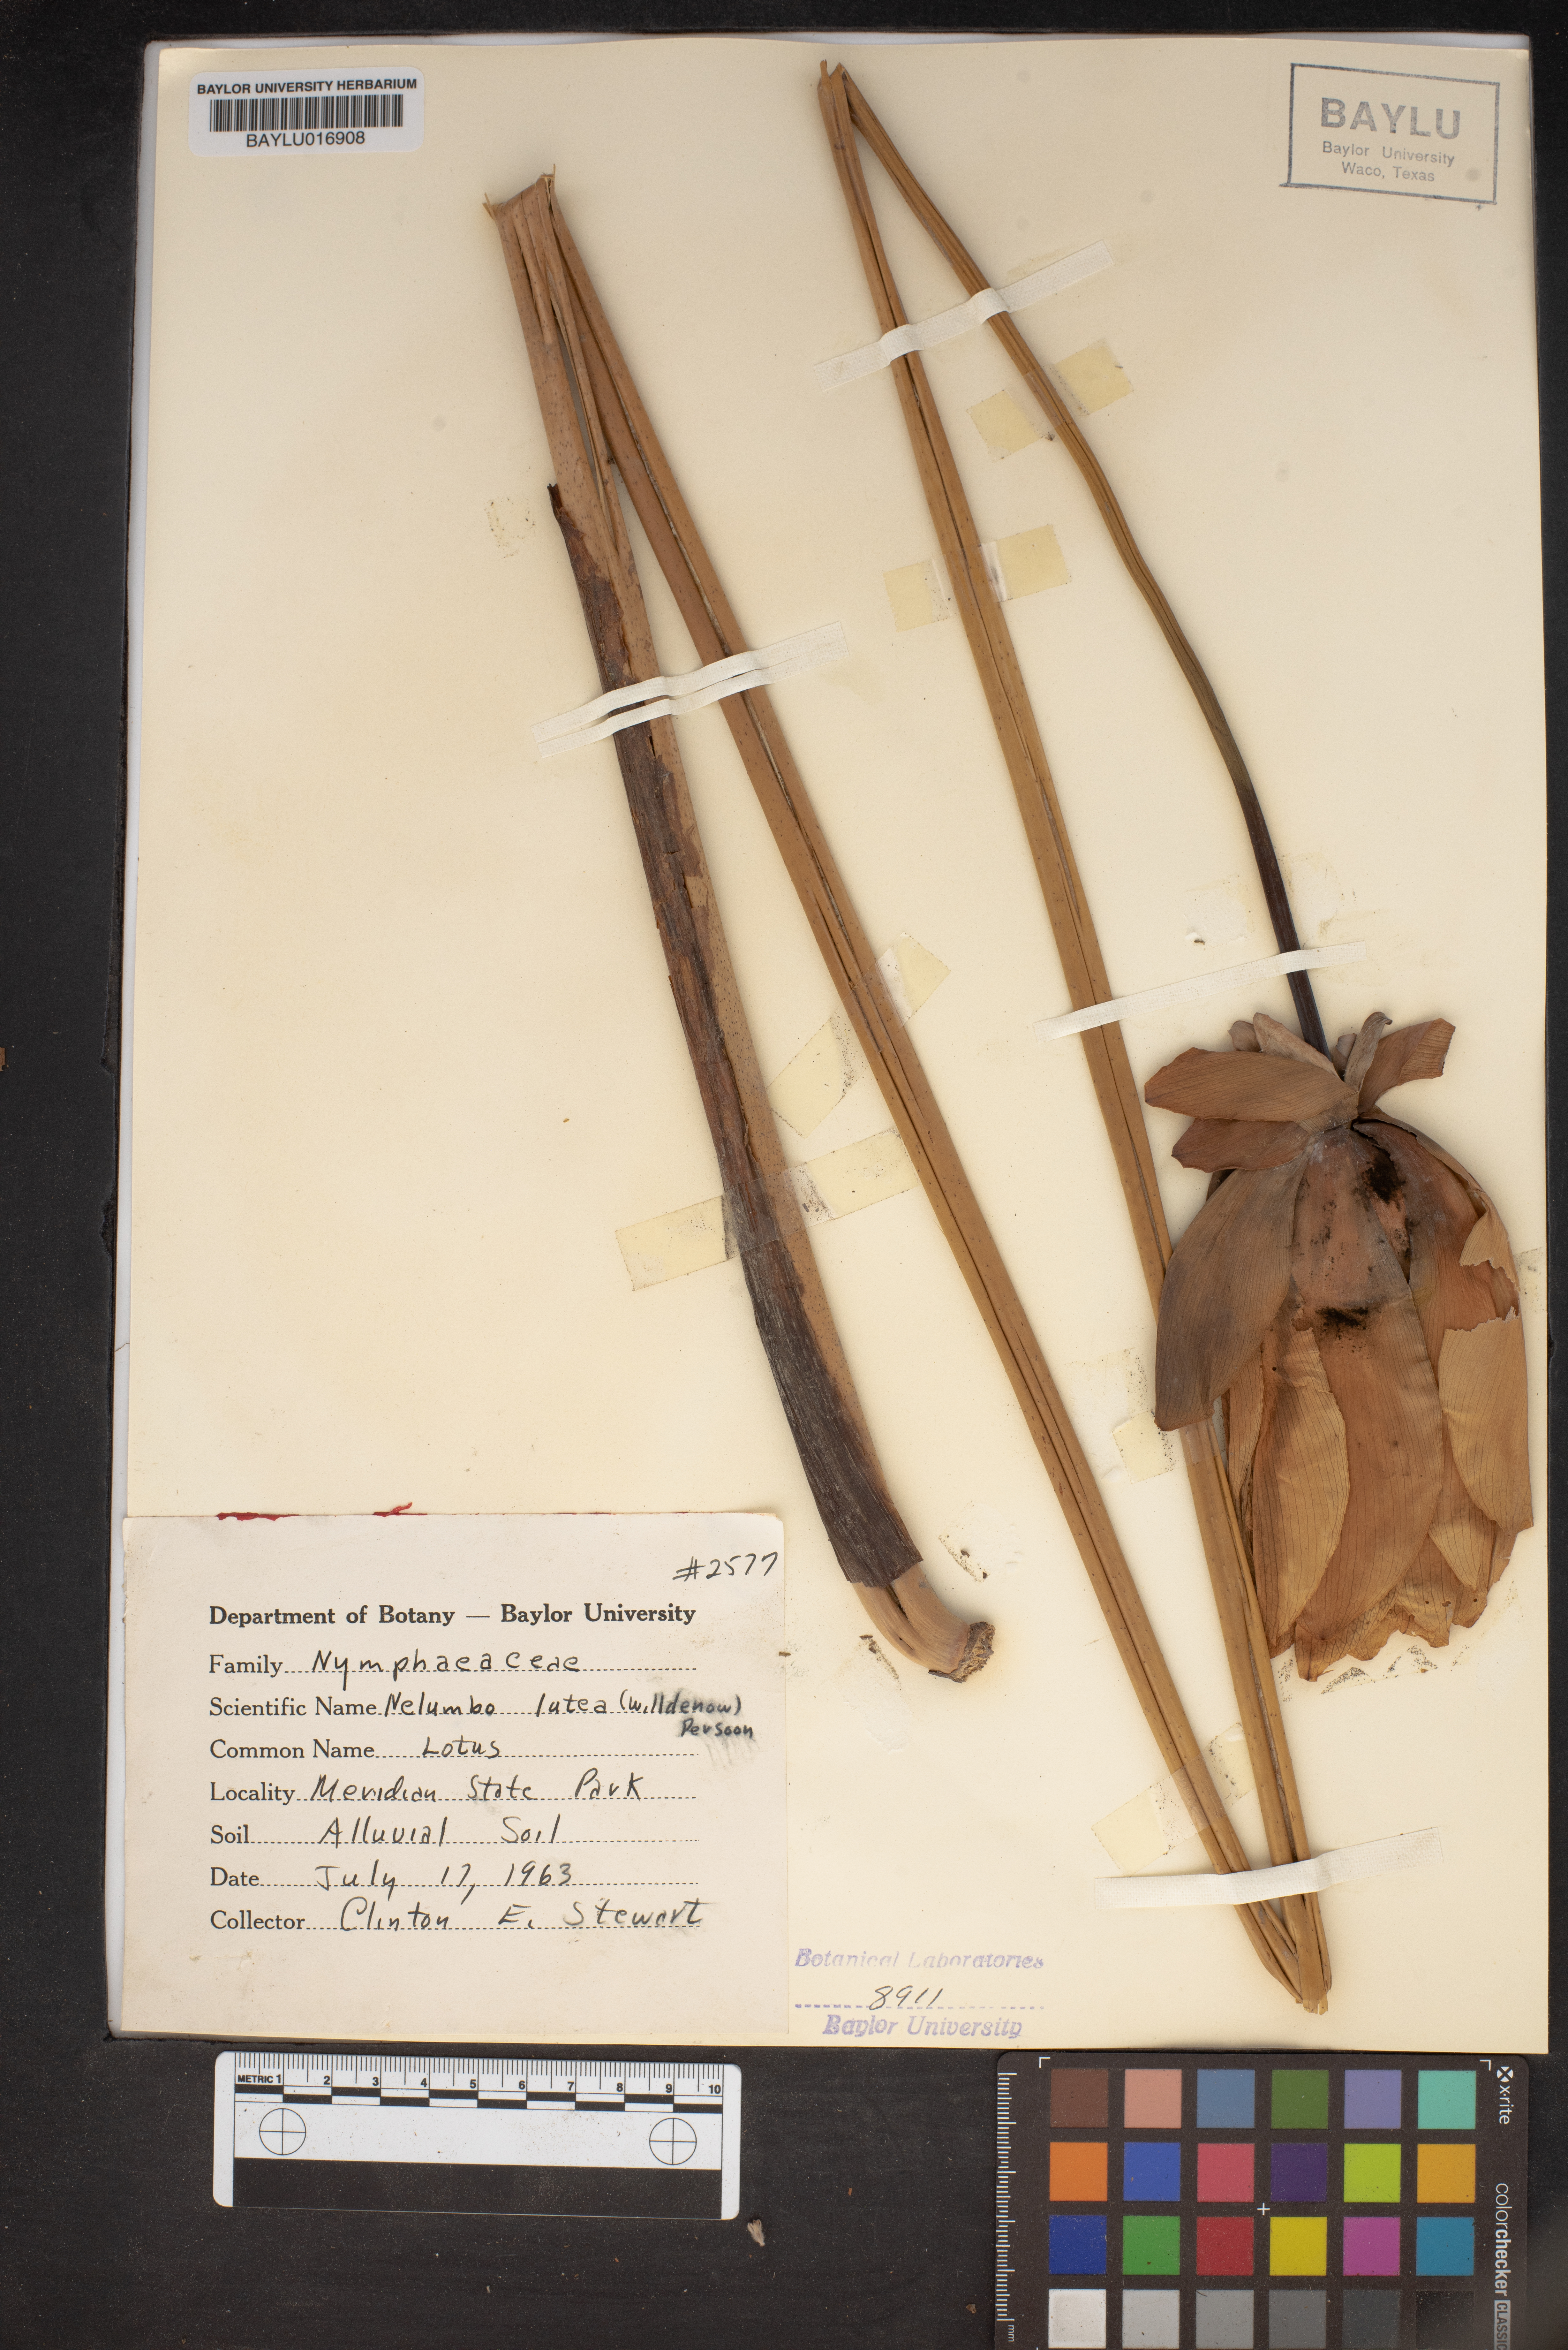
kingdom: Plantae
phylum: Tracheophyta
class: Magnoliopsida
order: Proteales
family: Nelumbonaceae
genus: Nelumbo
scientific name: Nelumbo lutea
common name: American lotus
